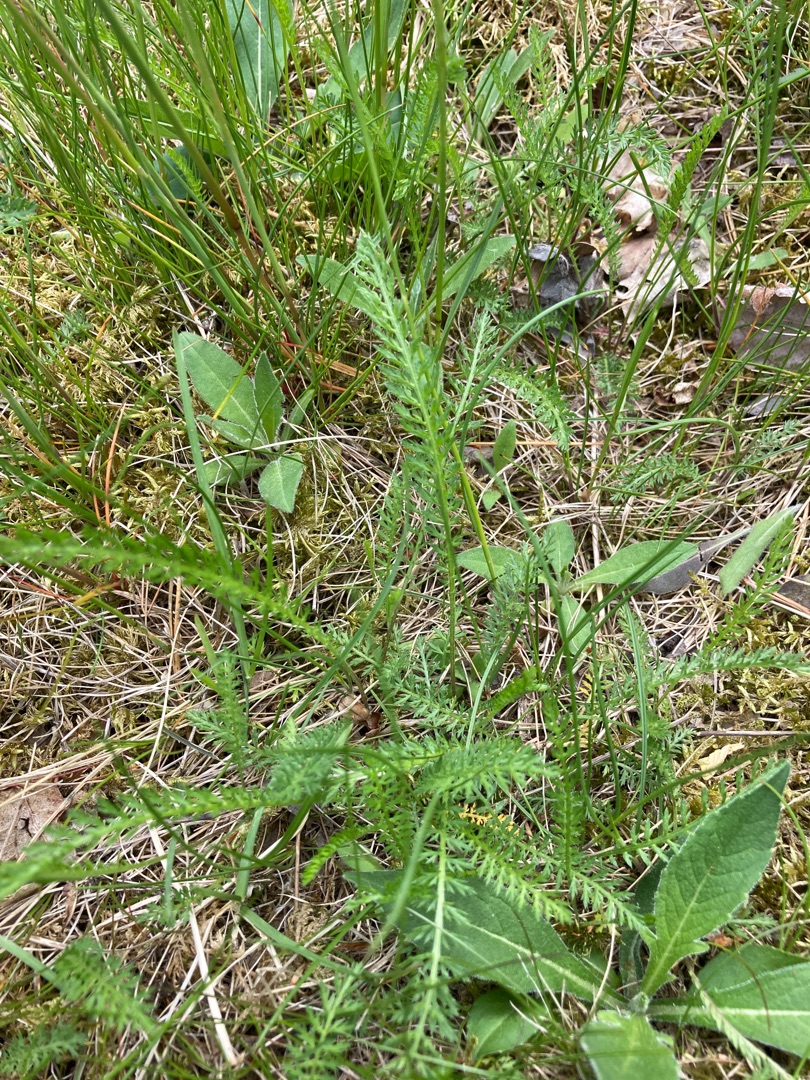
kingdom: Plantae
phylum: Tracheophyta
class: Magnoliopsida
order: Asterales
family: Asteraceae
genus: Achillea
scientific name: Achillea millefolium
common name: Almindelig røllike
